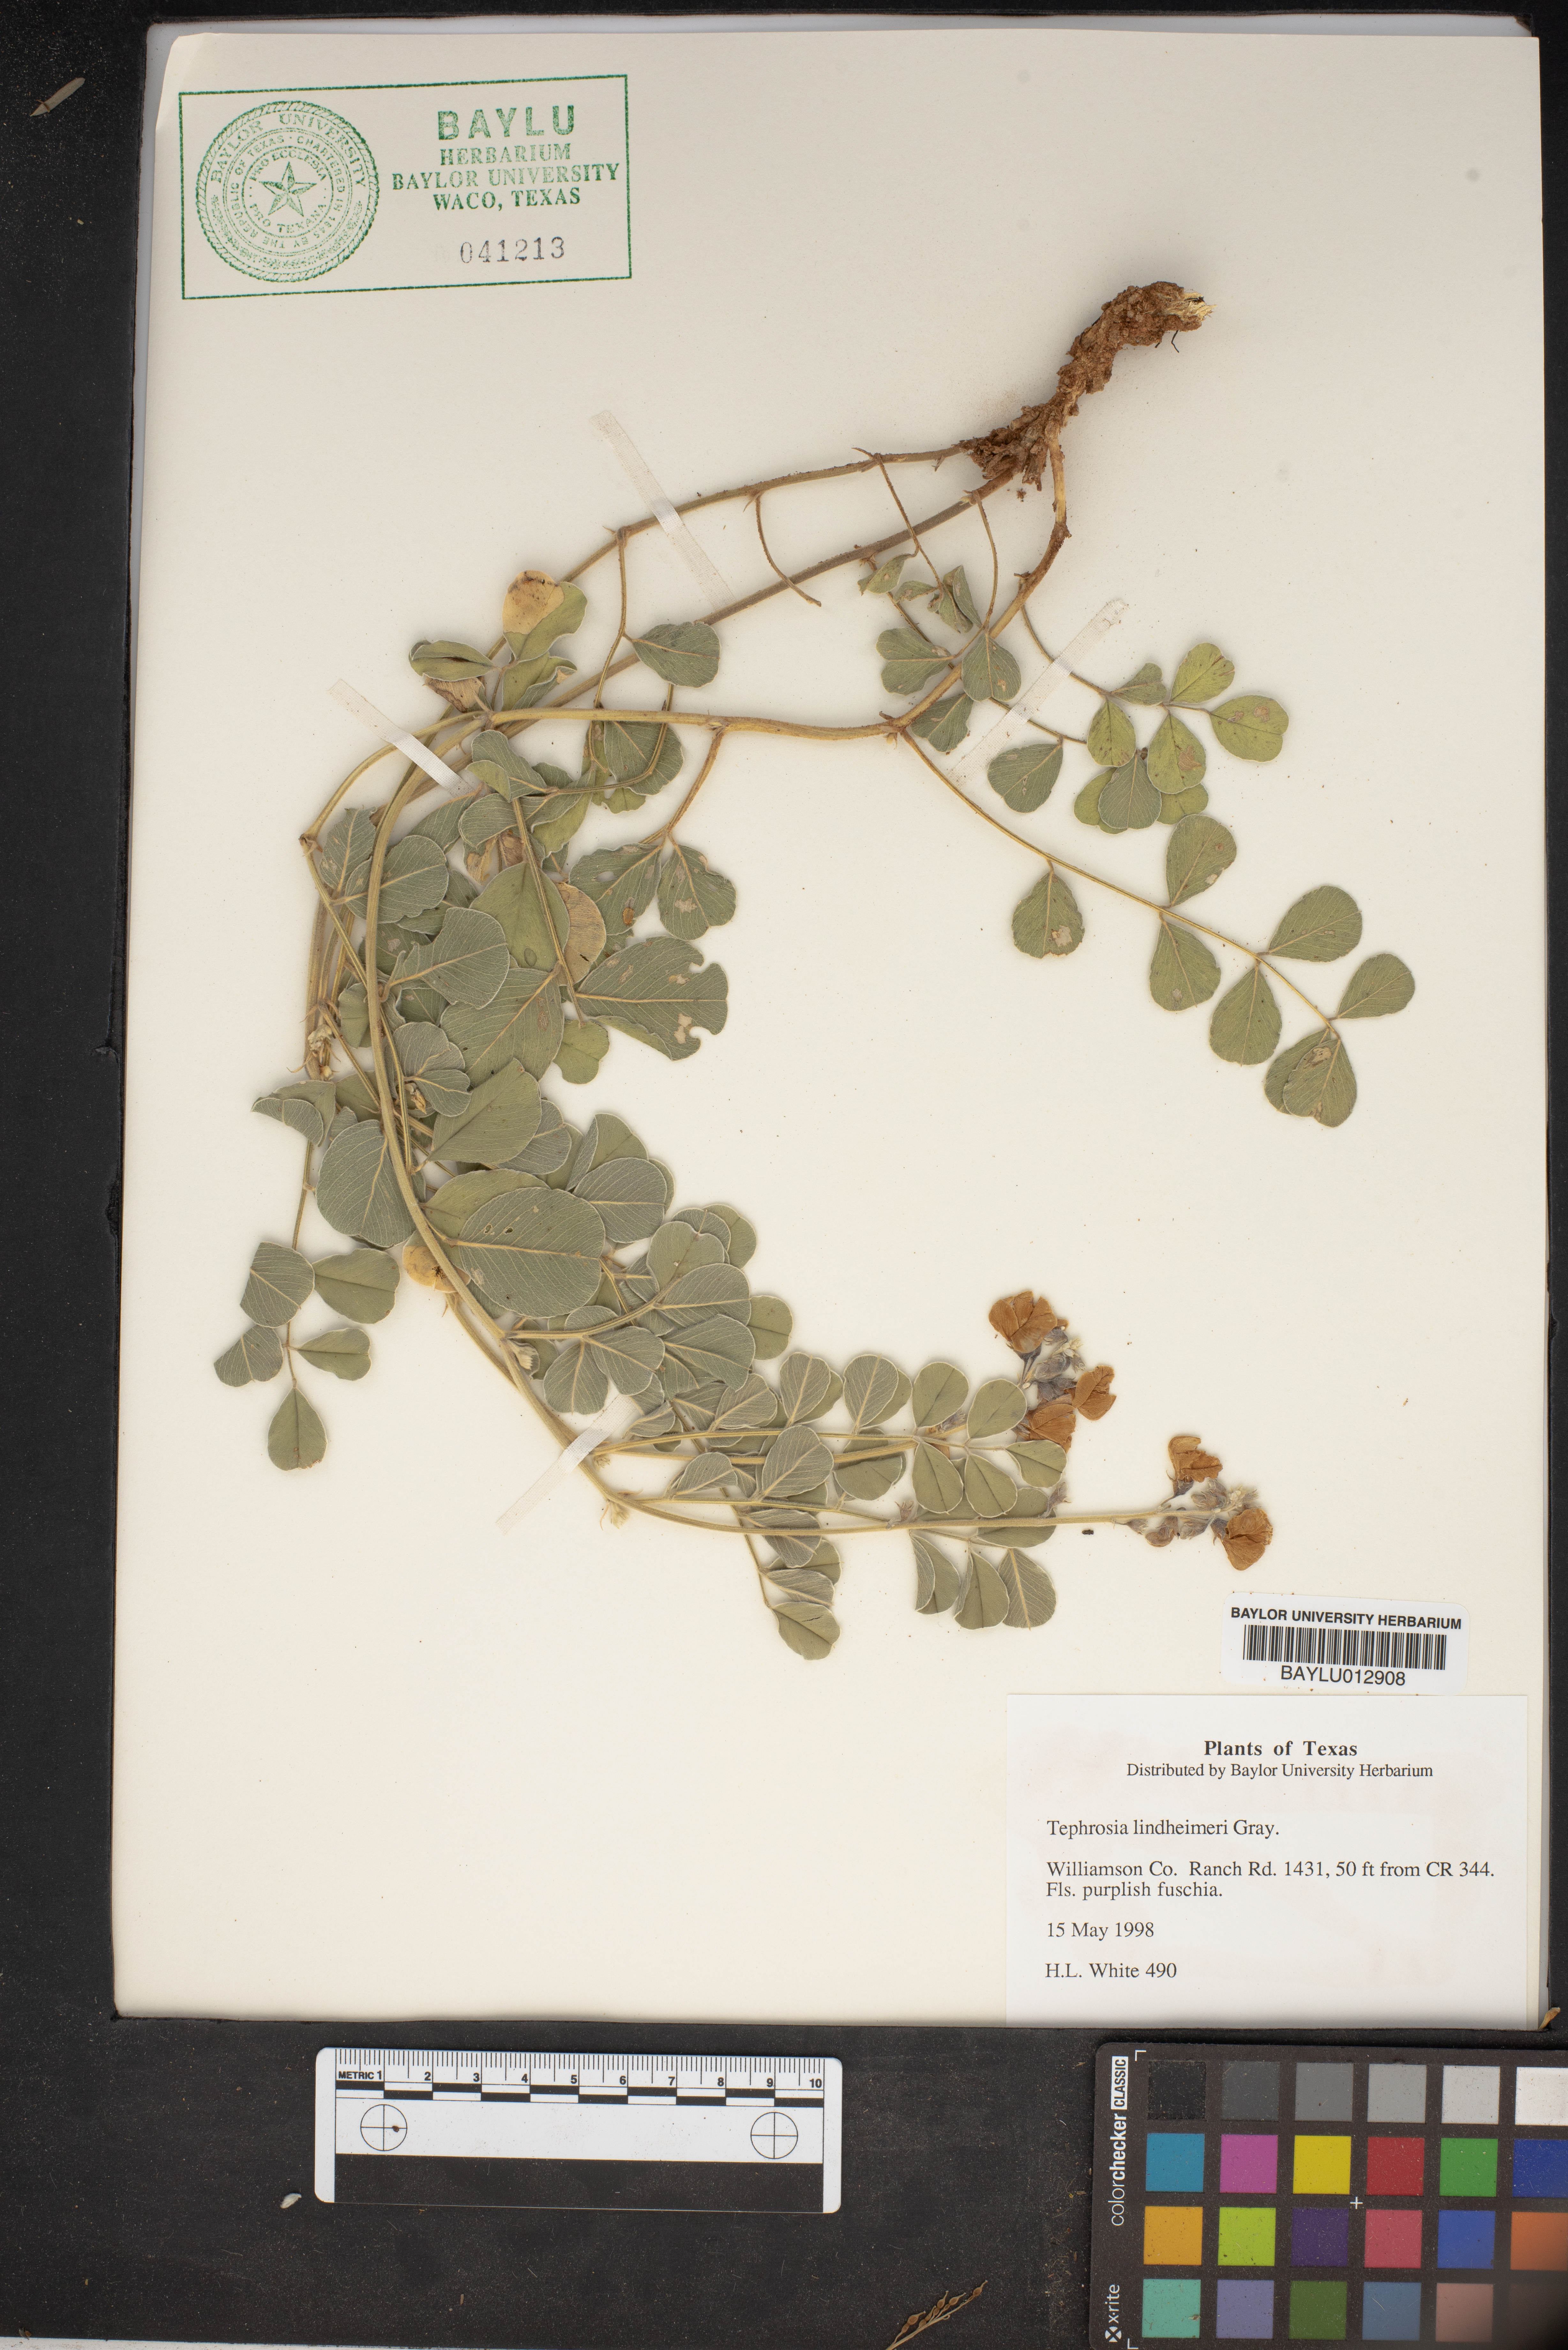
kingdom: Plantae
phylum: Tracheophyta
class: Magnoliopsida
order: Fabales
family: Fabaceae
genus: Tephrosia
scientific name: Tephrosia lindheimeri
